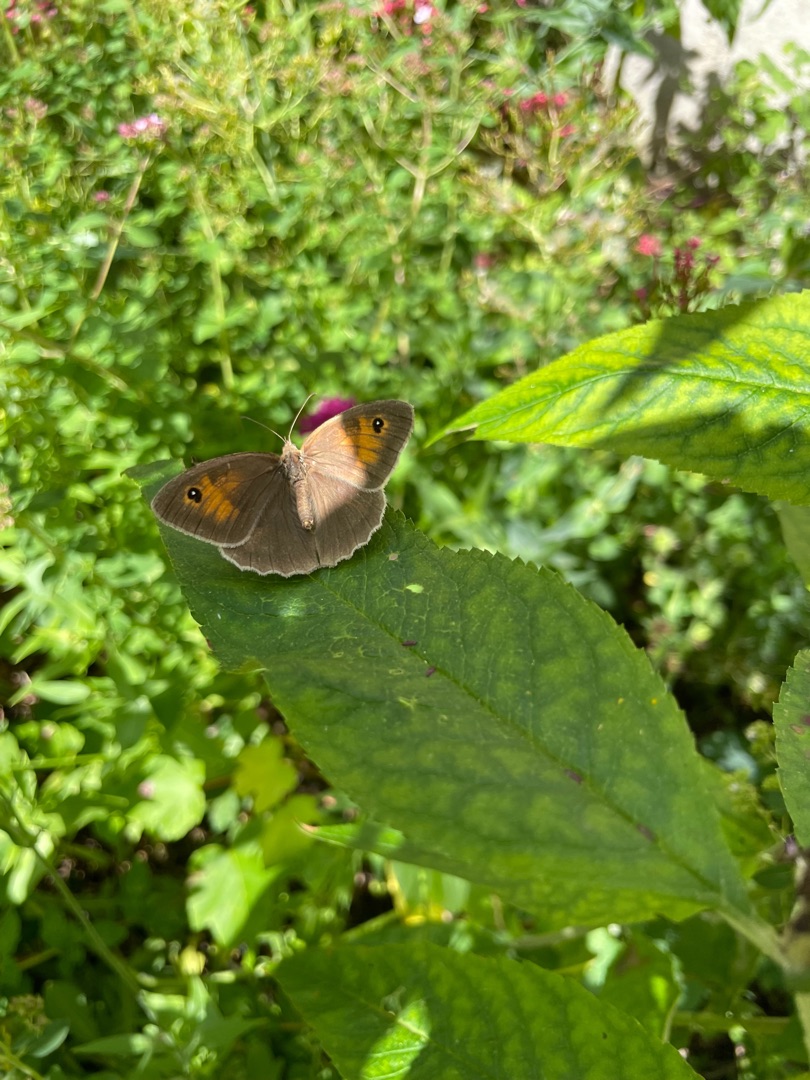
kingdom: Animalia
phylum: Arthropoda
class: Insecta
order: Lepidoptera
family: Nymphalidae
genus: Maniola
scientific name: Maniola jurtina
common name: Græsrandøje
